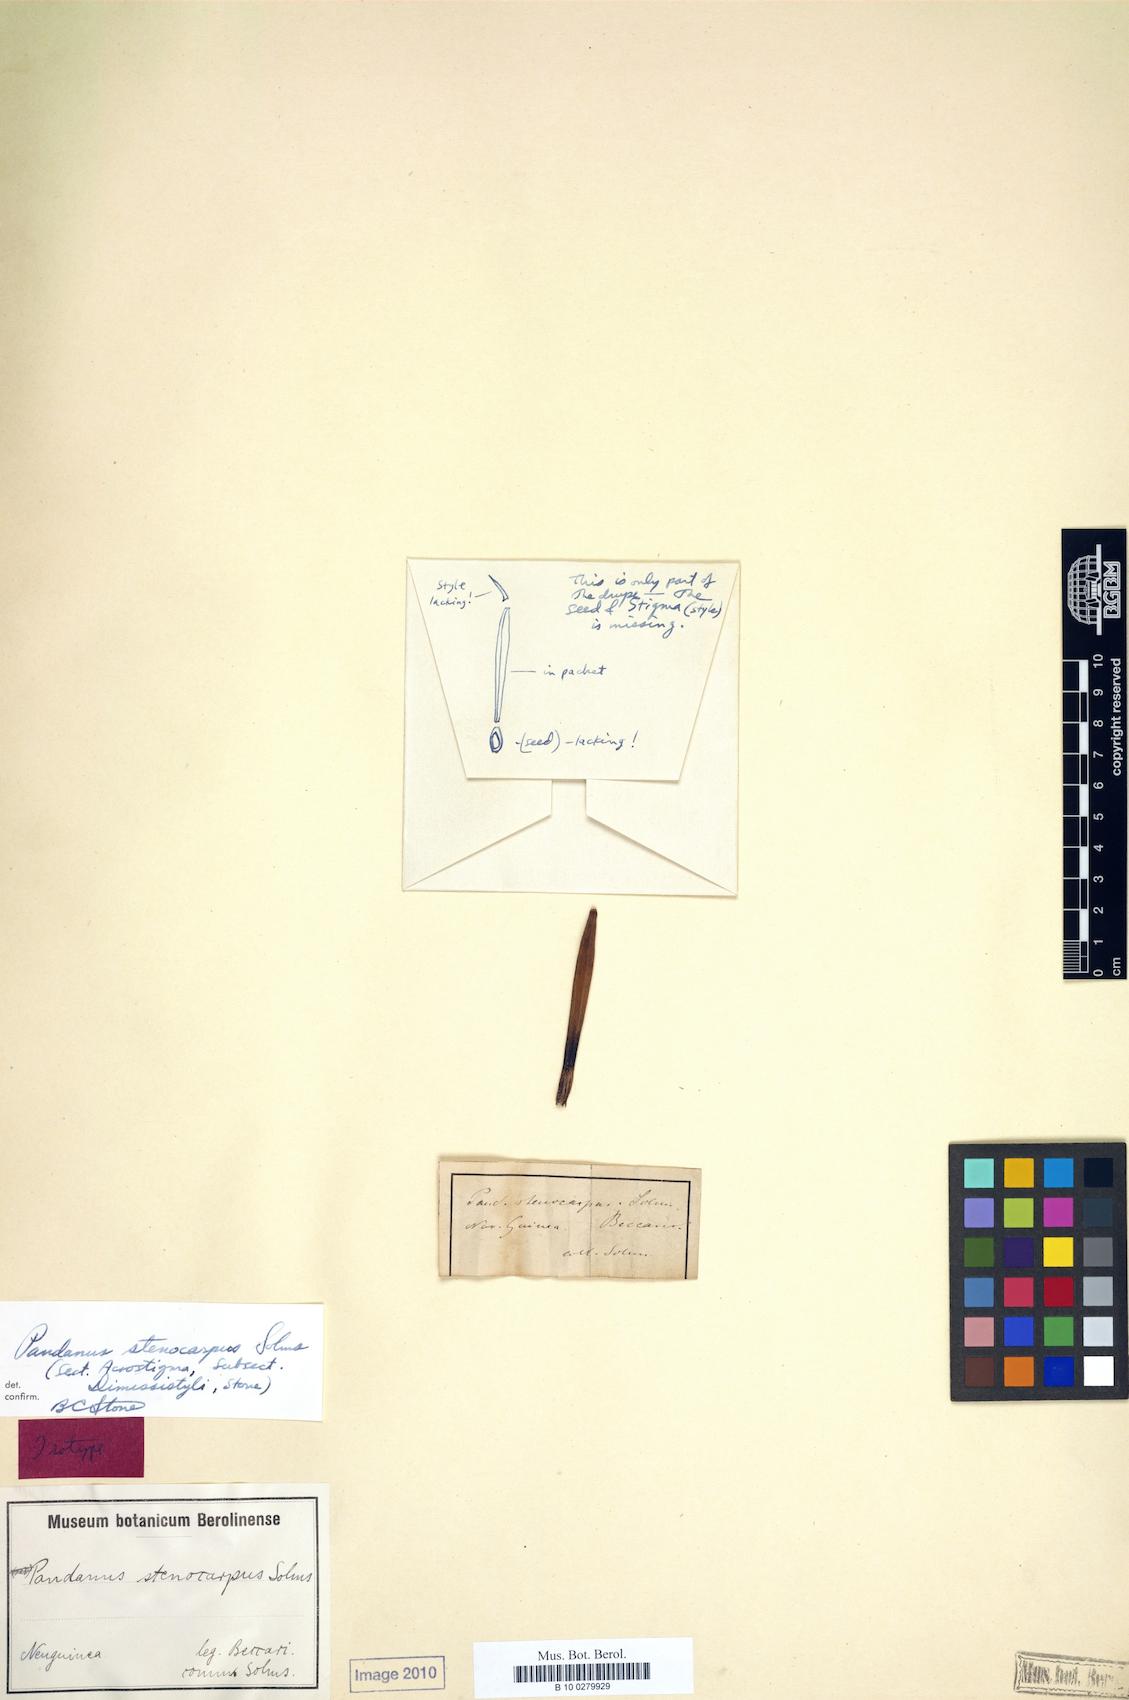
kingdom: Plantae
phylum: Tracheophyta
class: Liliopsida
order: Pandanales
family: Pandanaceae
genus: Benstonea
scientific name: Benstonea stenocarpa
